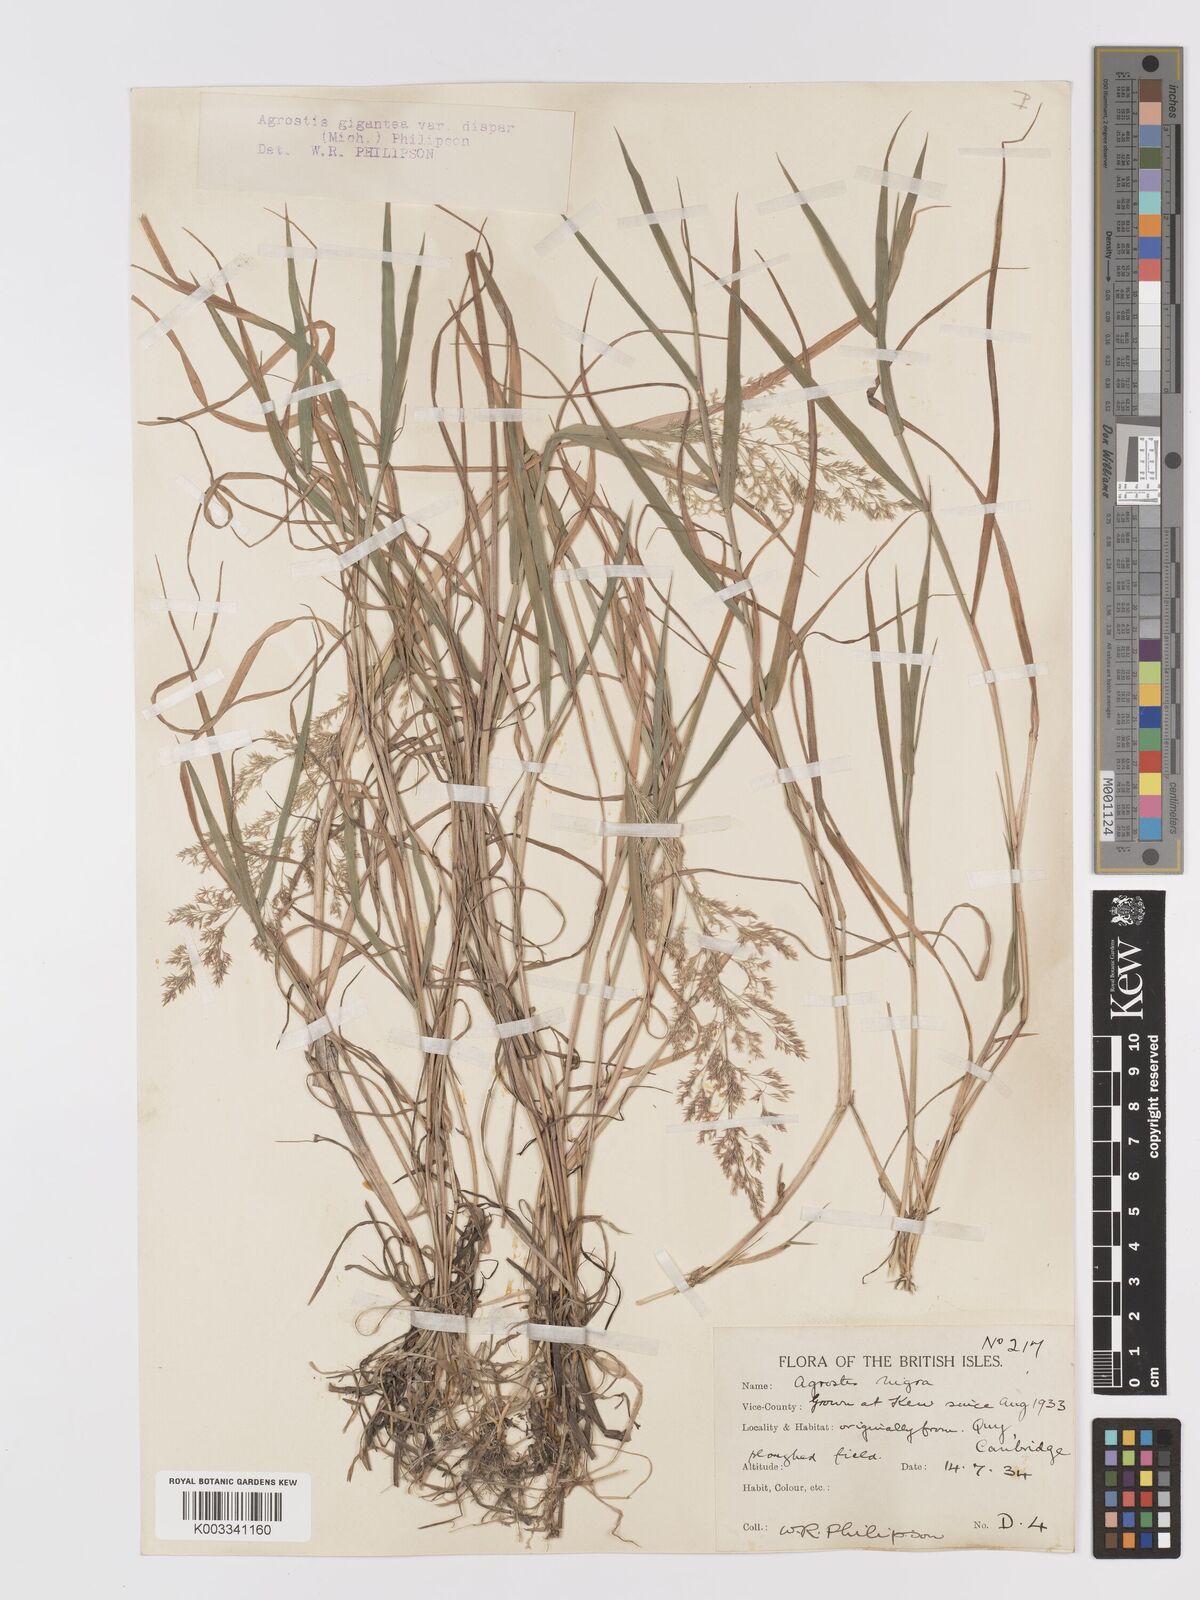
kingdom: Plantae
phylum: Tracheophyta
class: Liliopsida
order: Poales
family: Poaceae
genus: Agrostis
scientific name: Agrostis gigantea
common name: Black bent
